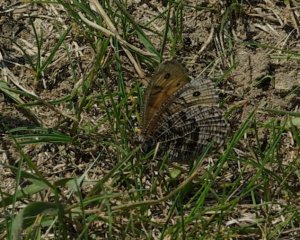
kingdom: Animalia
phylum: Arthropoda
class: Insecta
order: Lepidoptera
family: Nymphalidae
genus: Oeneis
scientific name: Oeneis alberta
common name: Alberta Arctic
